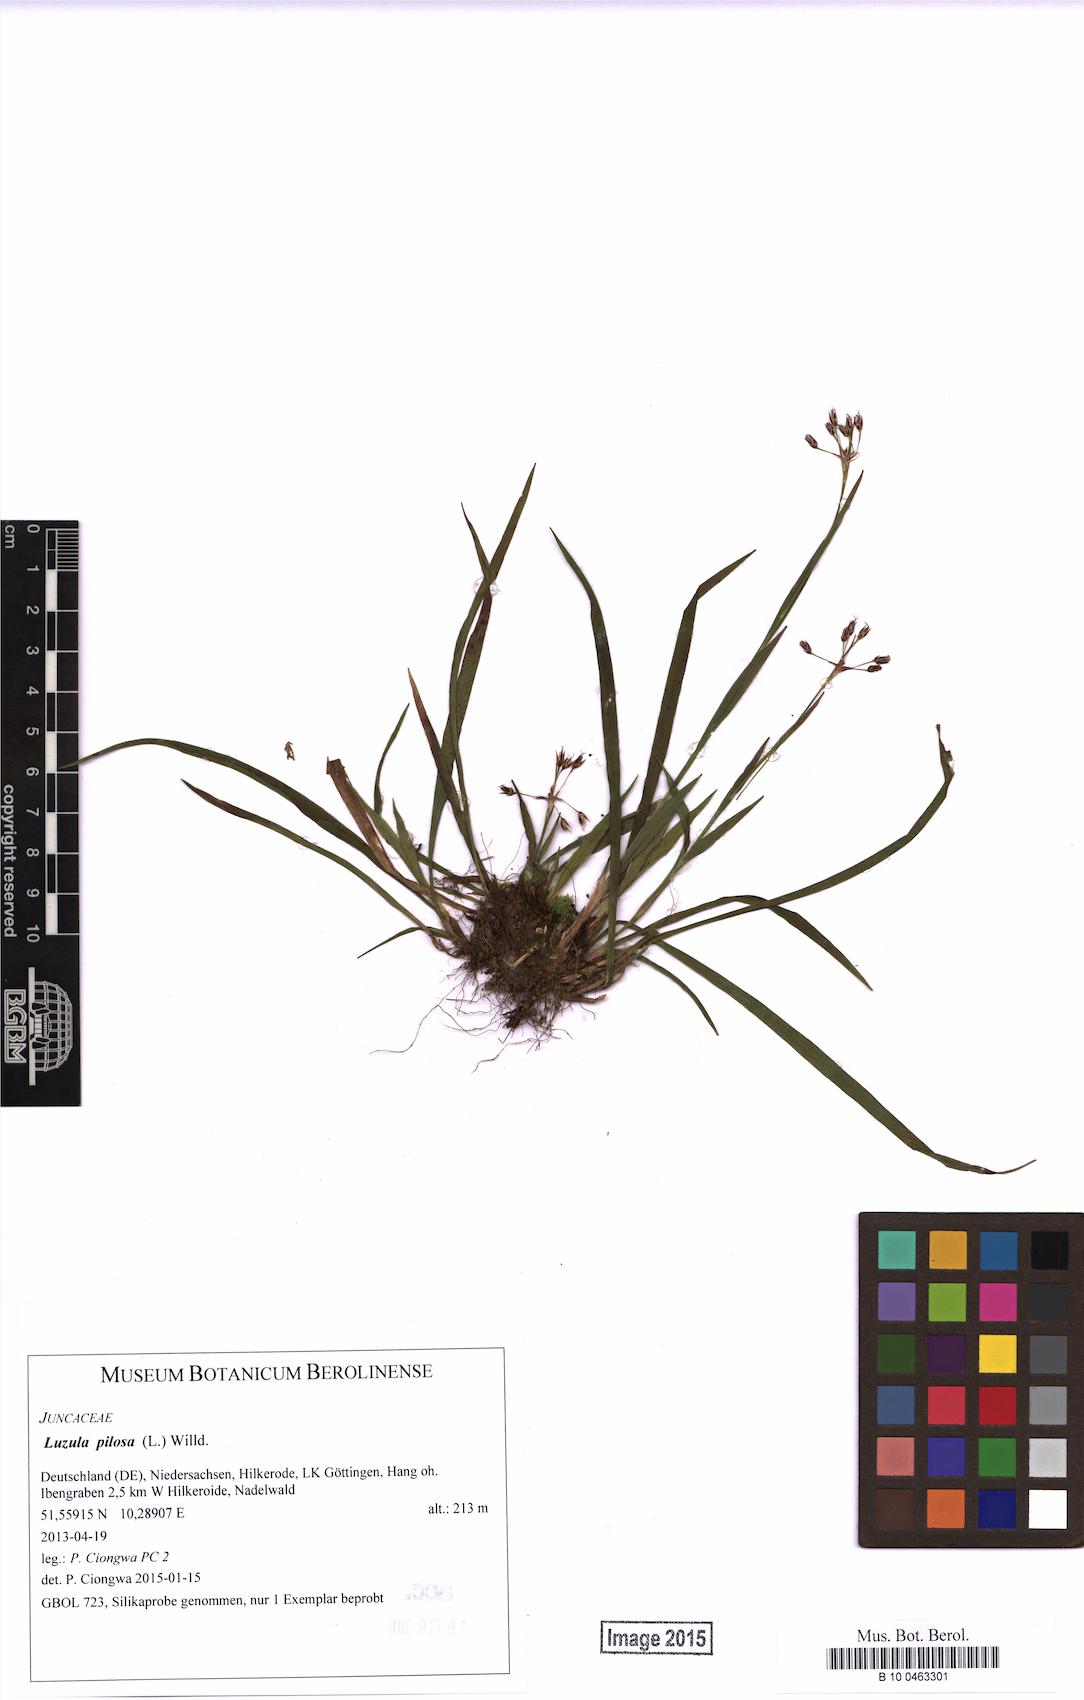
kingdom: Plantae
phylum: Tracheophyta
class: Liliopsida
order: Poales
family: Juncaceae
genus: Luzula
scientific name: Luzula pilosa
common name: Hairy wood-rush
